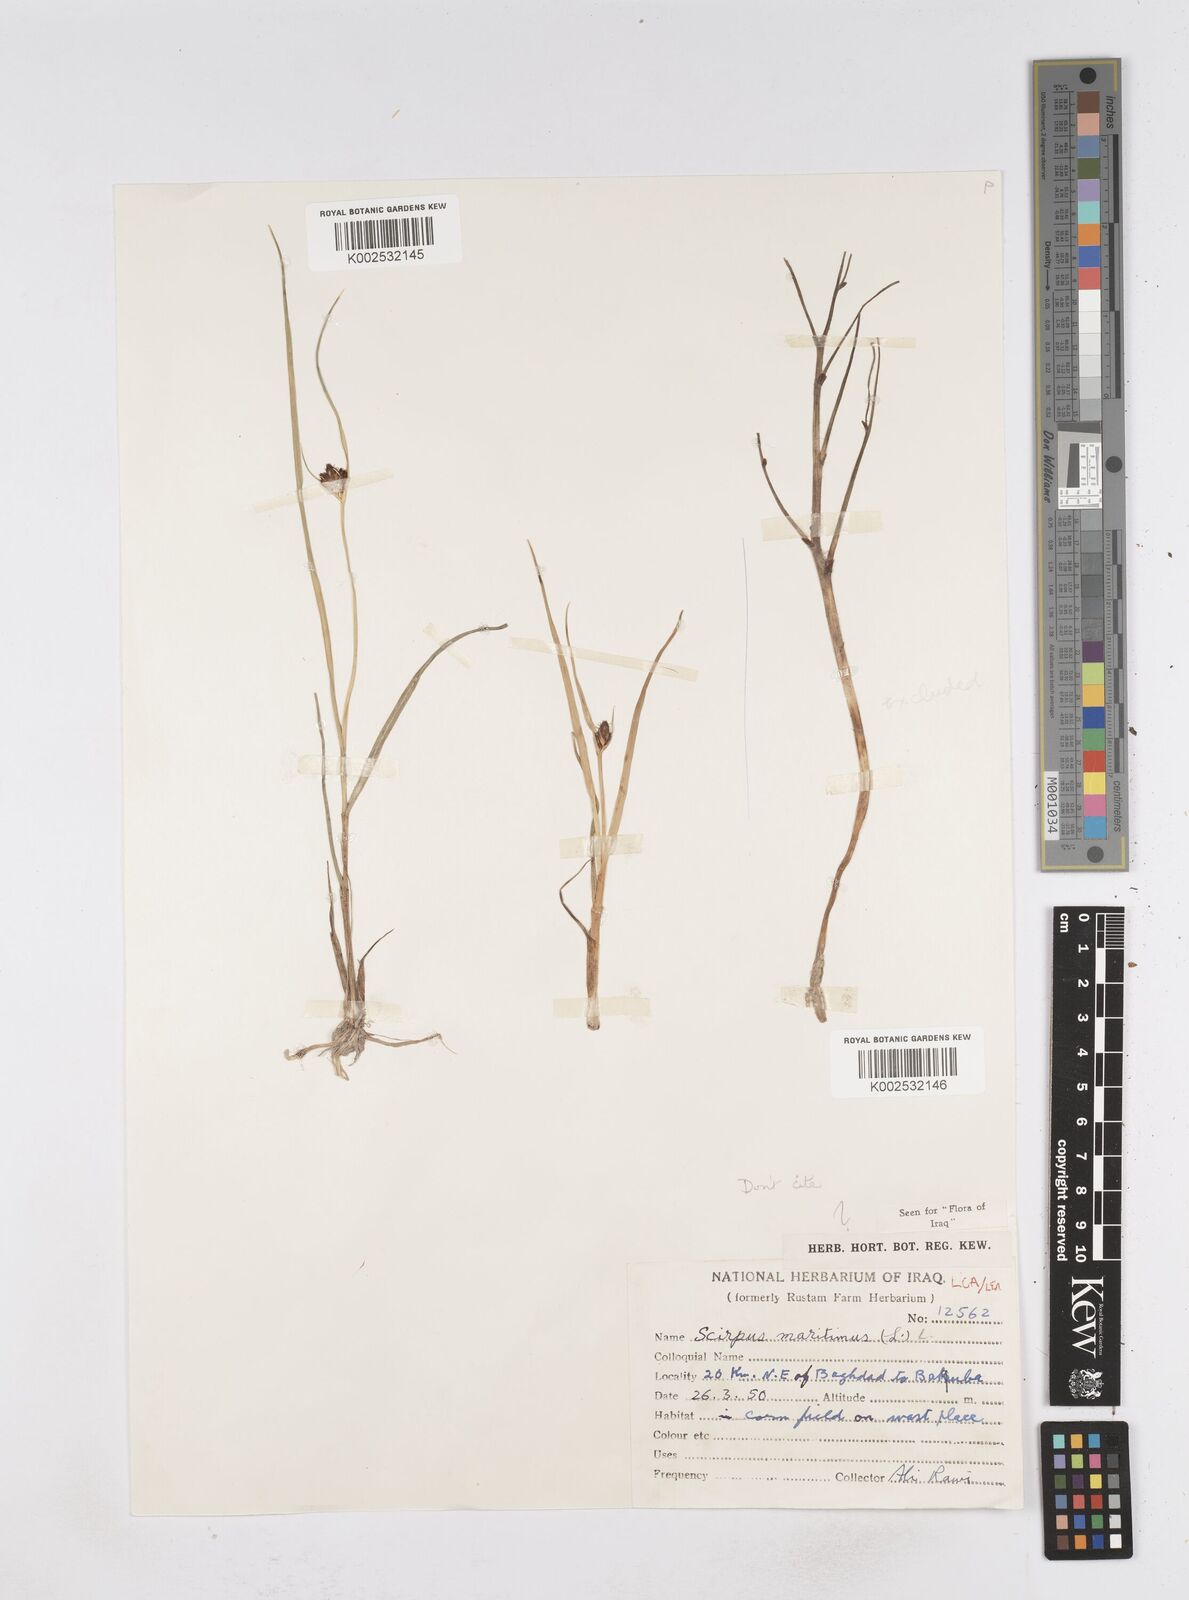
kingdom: Plantae
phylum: Tracheophyta
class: Liliopsida
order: Poales
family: Cyperaceae
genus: Bolboschoenus
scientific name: Bolboschoenus maritimus
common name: Sea club-rush
